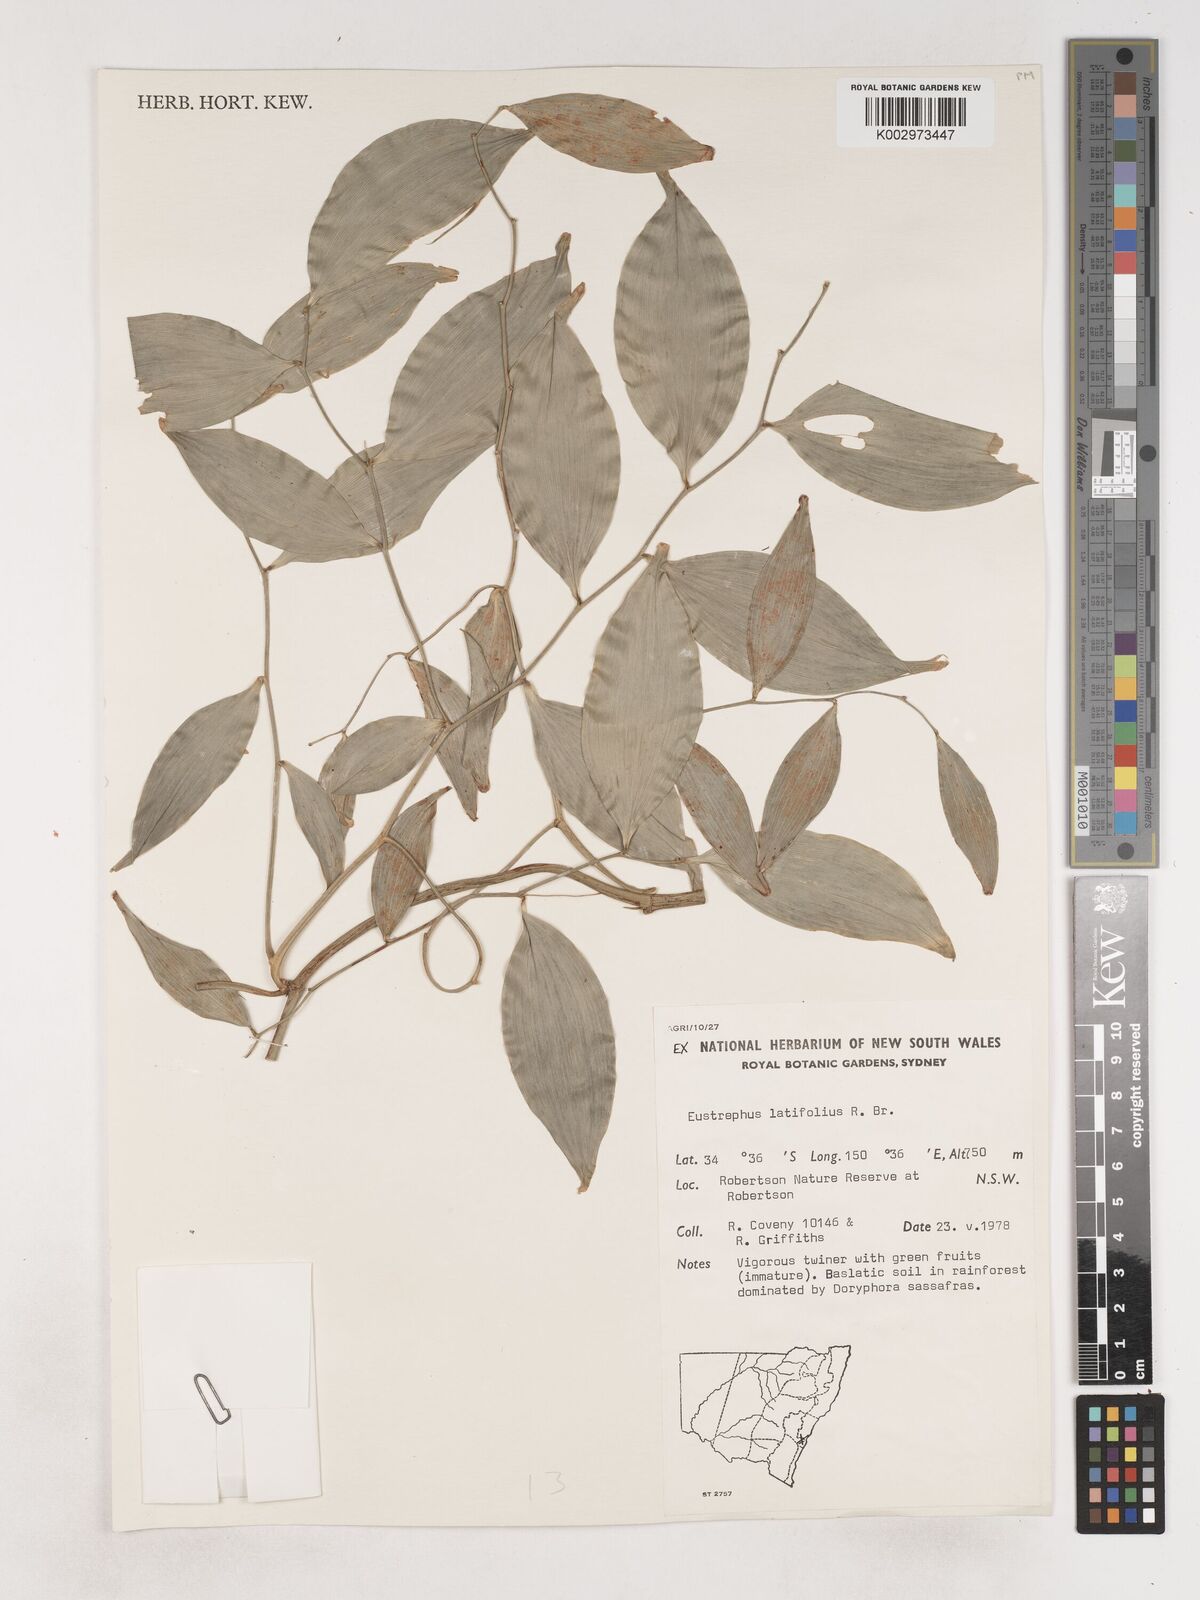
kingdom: Plantae
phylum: Tracheophyta
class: Liliopsida
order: Asparagales
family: Asparagaceae
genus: Eustrephus
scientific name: Eustrephus latifolius
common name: Orangevine
